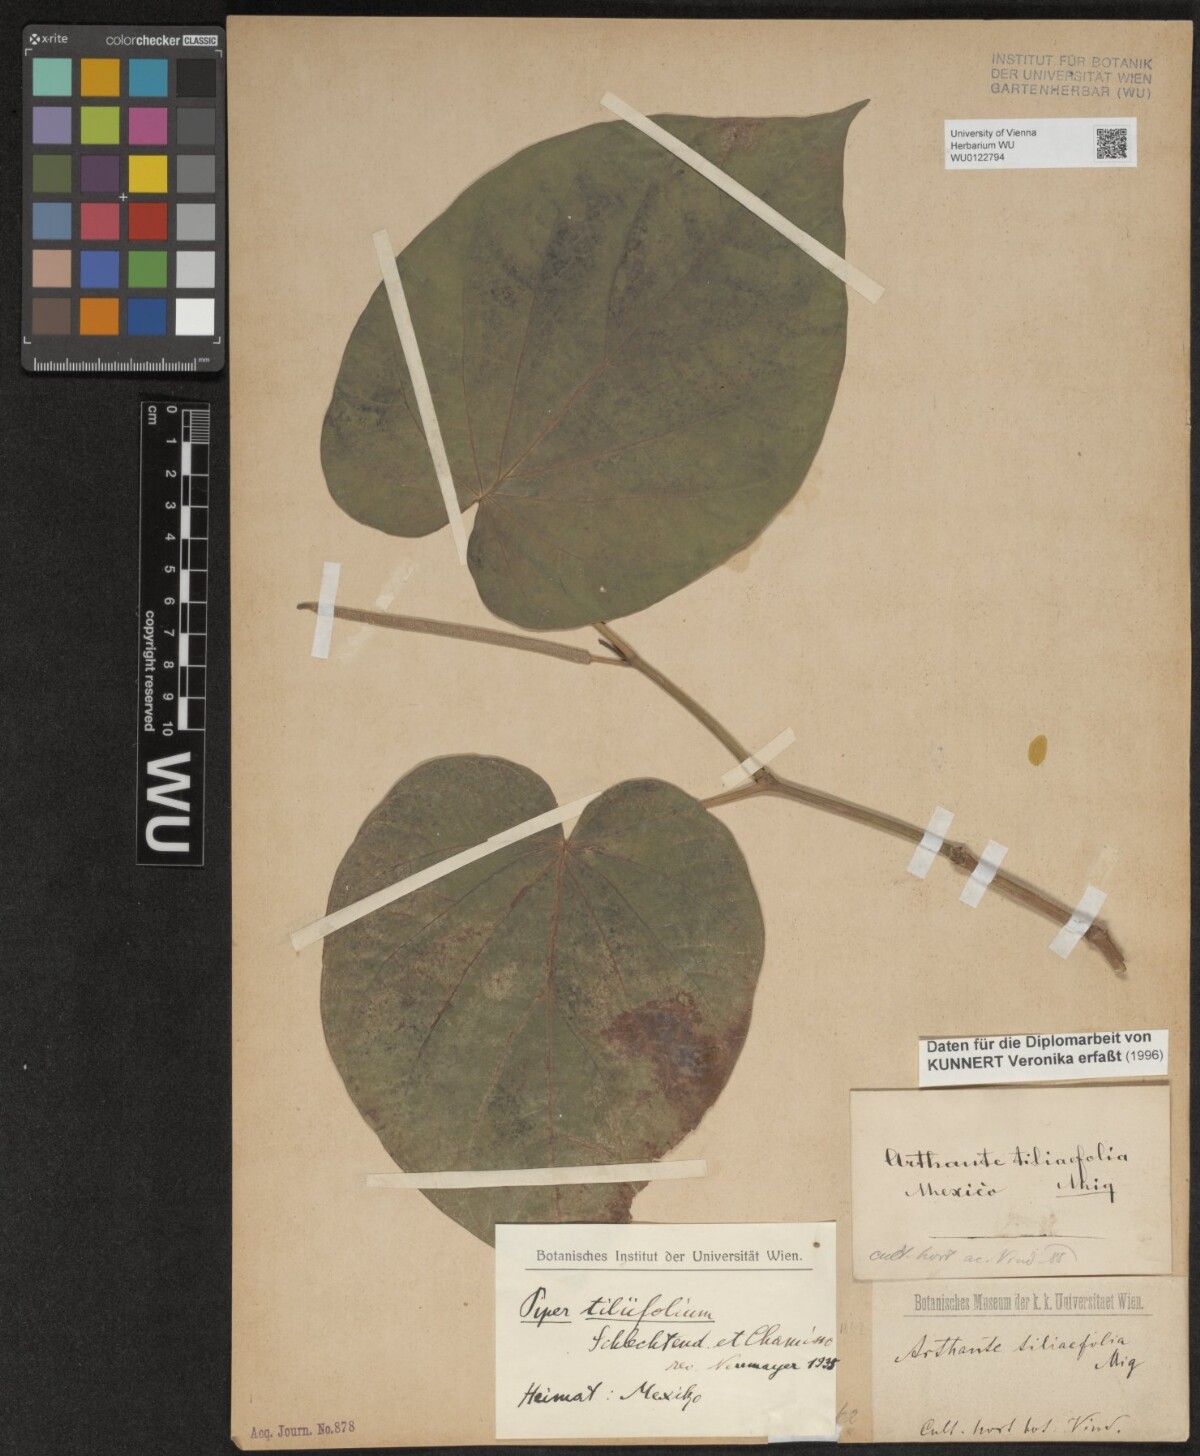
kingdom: Plantae
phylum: Tracheophyta
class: Magnoliopsida
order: Piperales
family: Piperaceae
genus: Piper
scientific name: Piper schiedeanum
